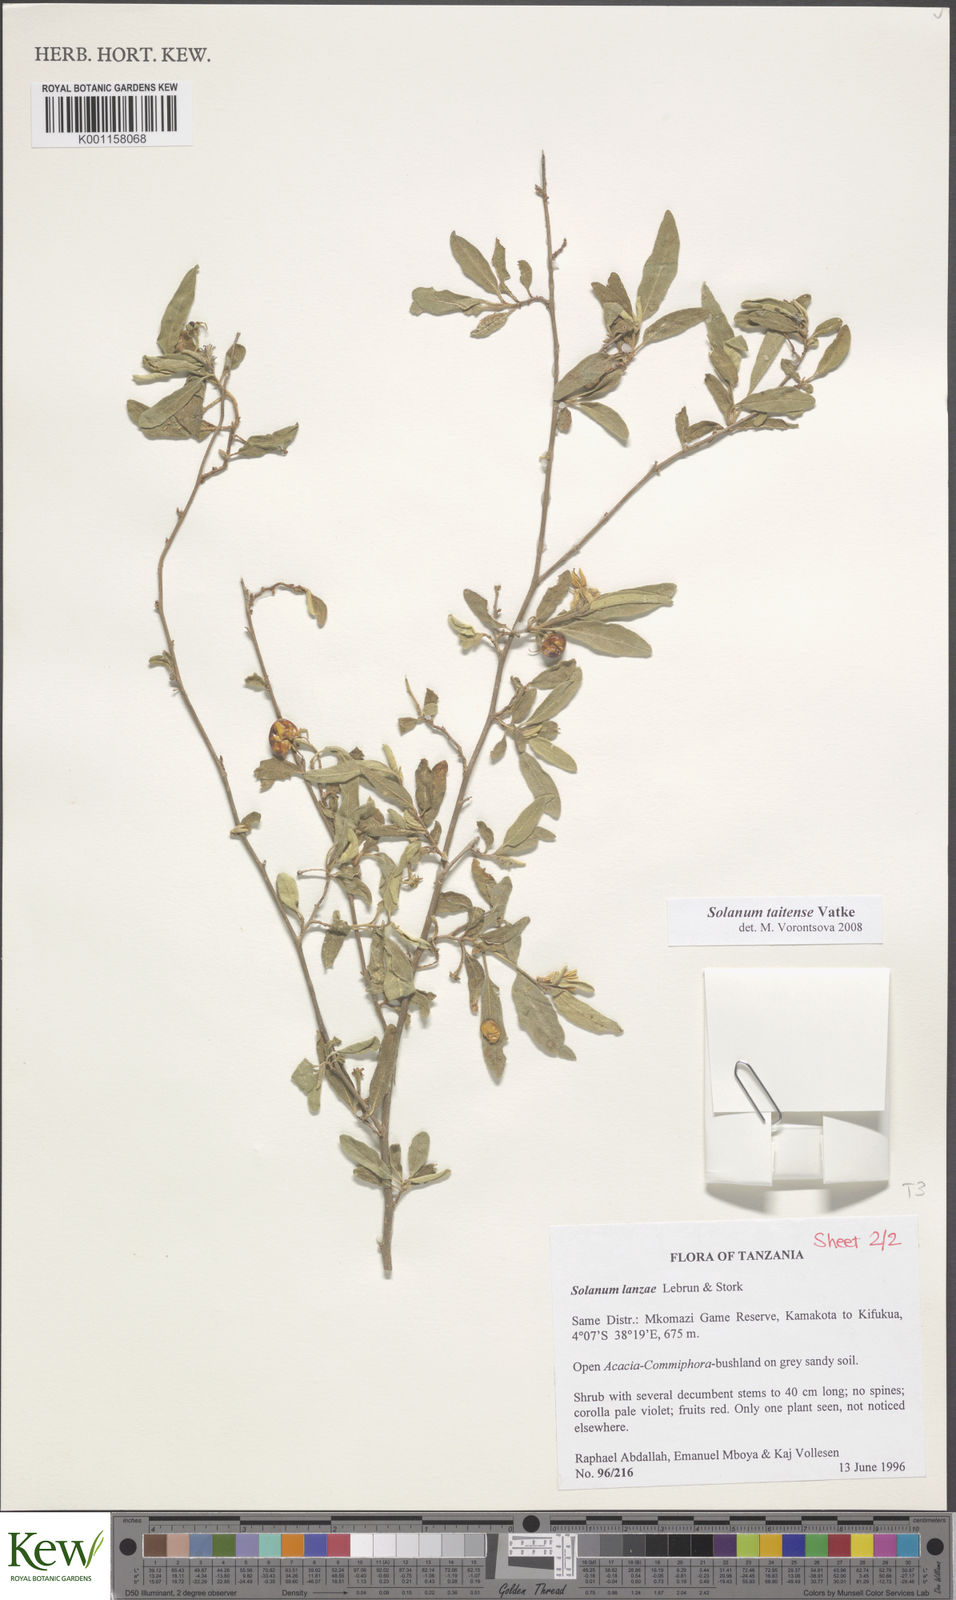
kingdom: Plantae
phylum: Tracheophyta
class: Magnoliopsida
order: Solanales
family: Solanaceae
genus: Solanum
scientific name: Solanum taitense
